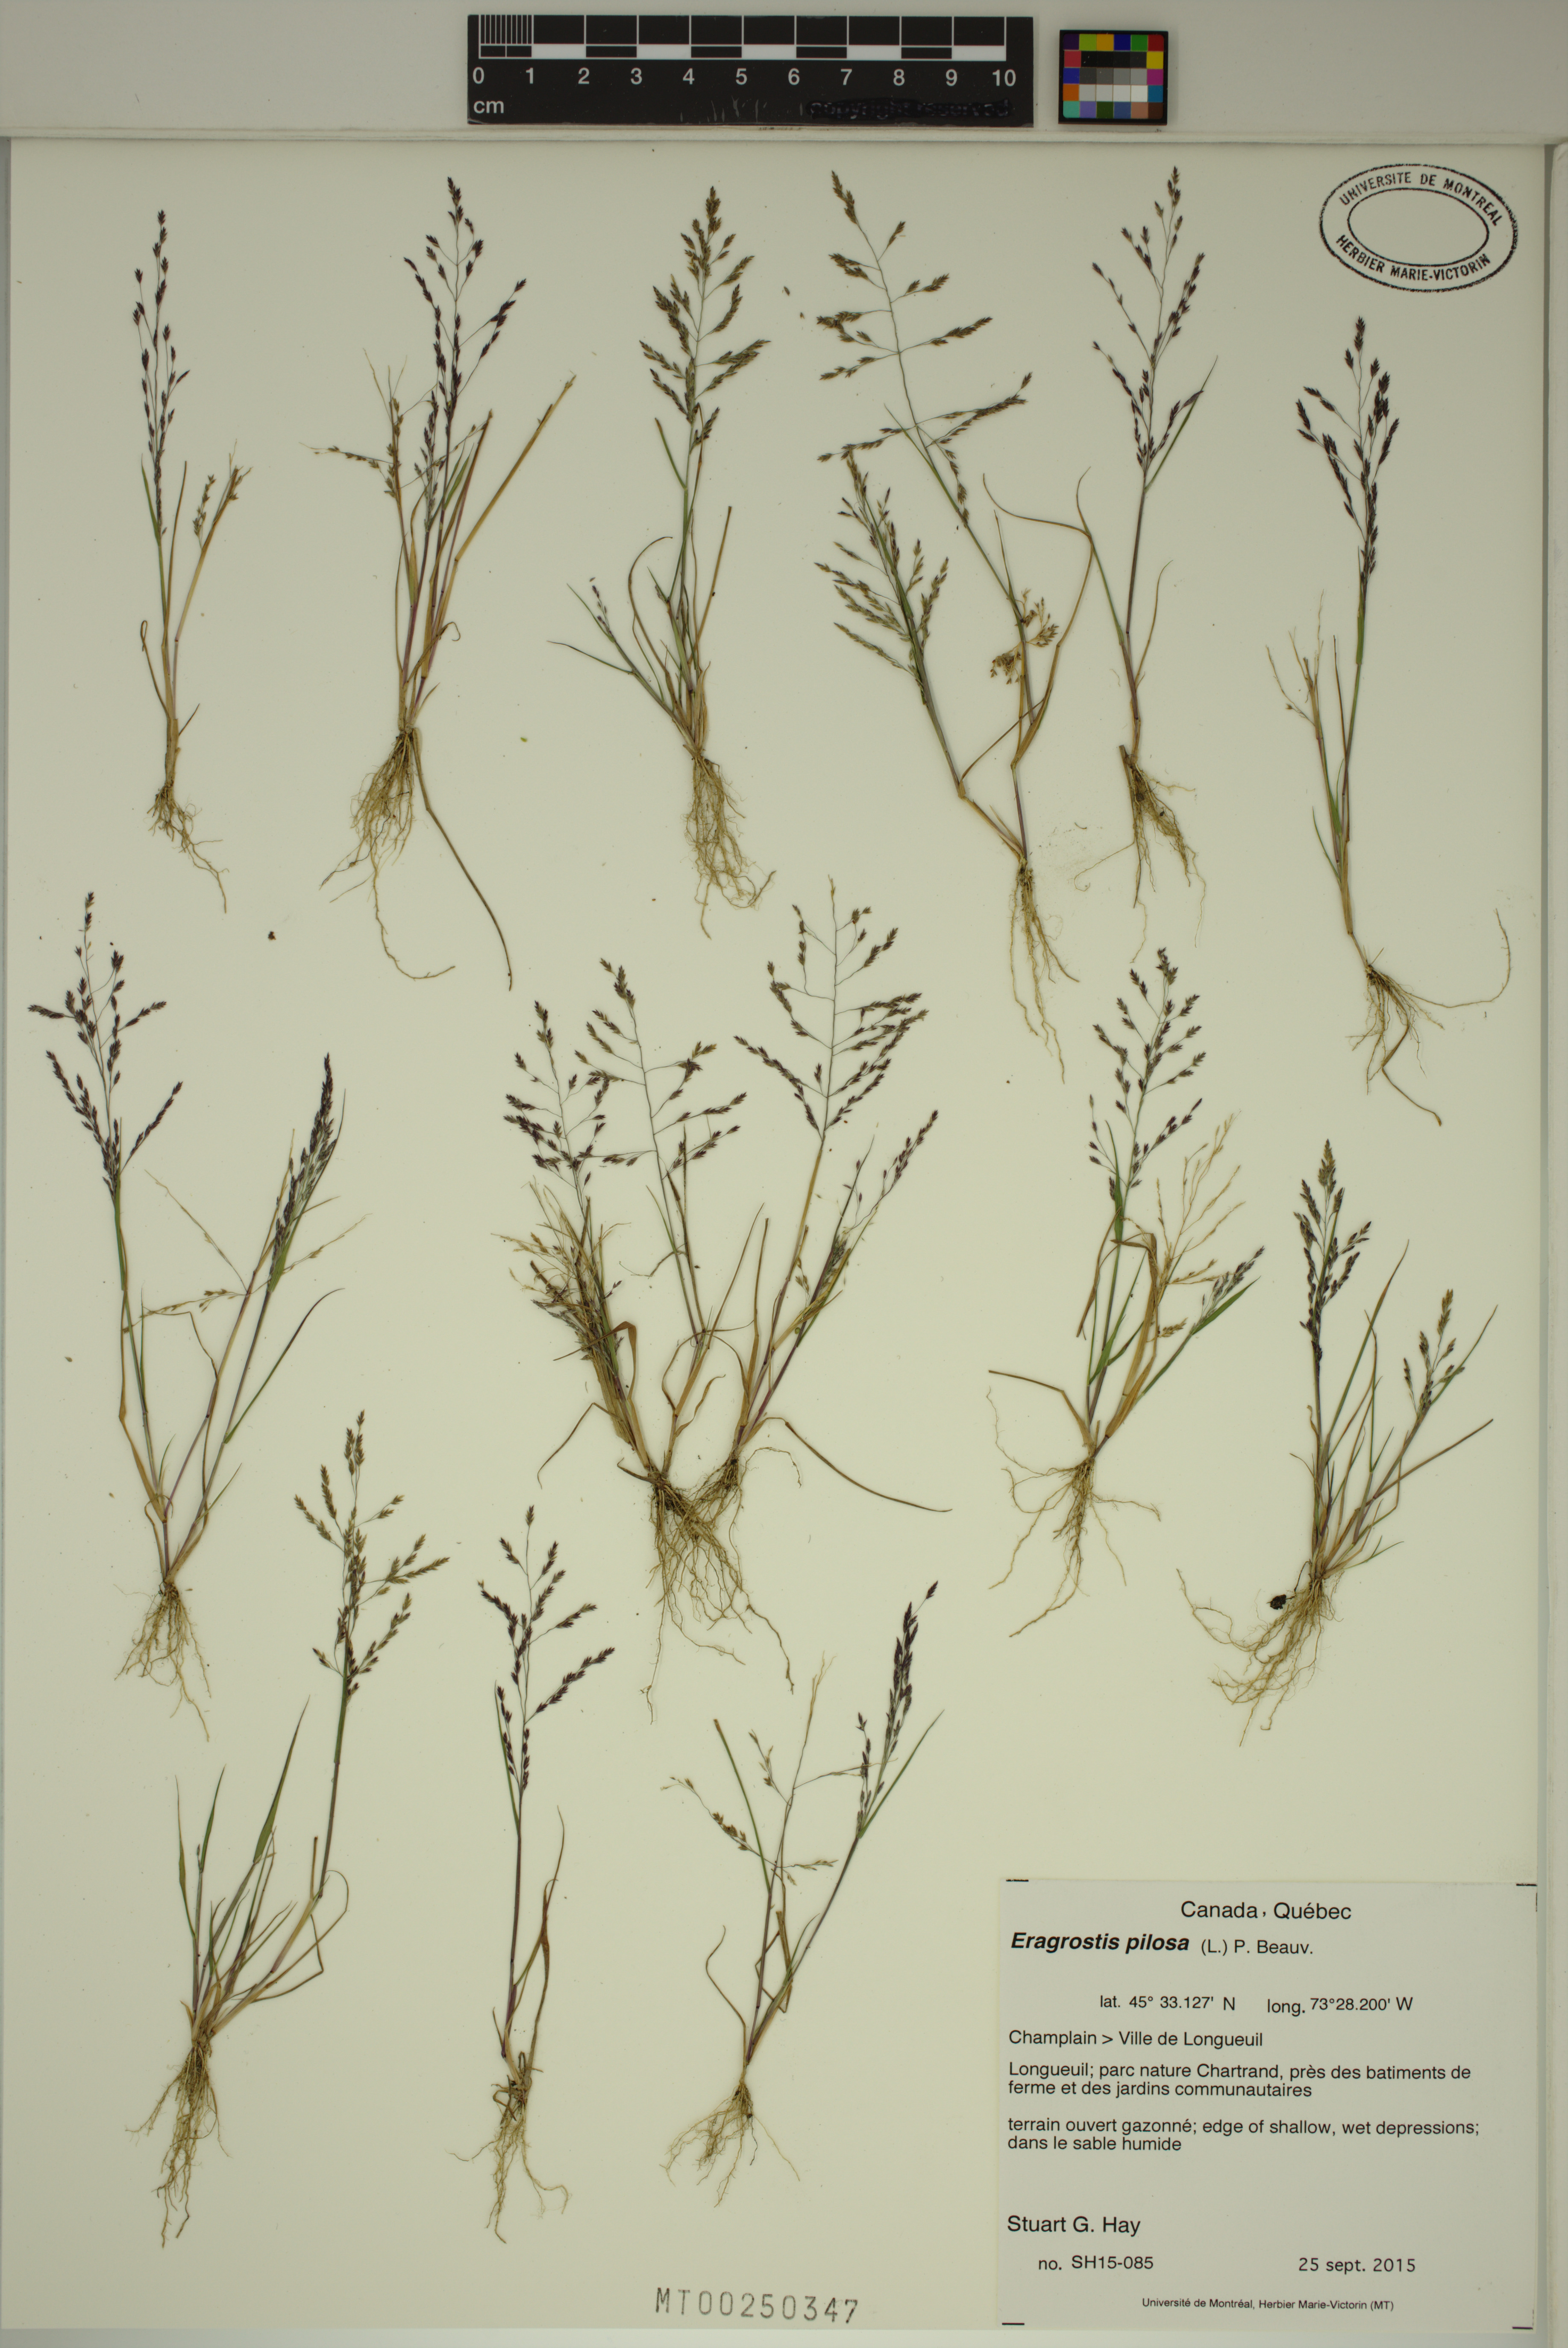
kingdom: Plantae
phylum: Tracheophyta
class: Liliopsida
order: Poales
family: Poaceae
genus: Eragrostis
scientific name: Eragrostis pilosa
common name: Indian lovegrass
